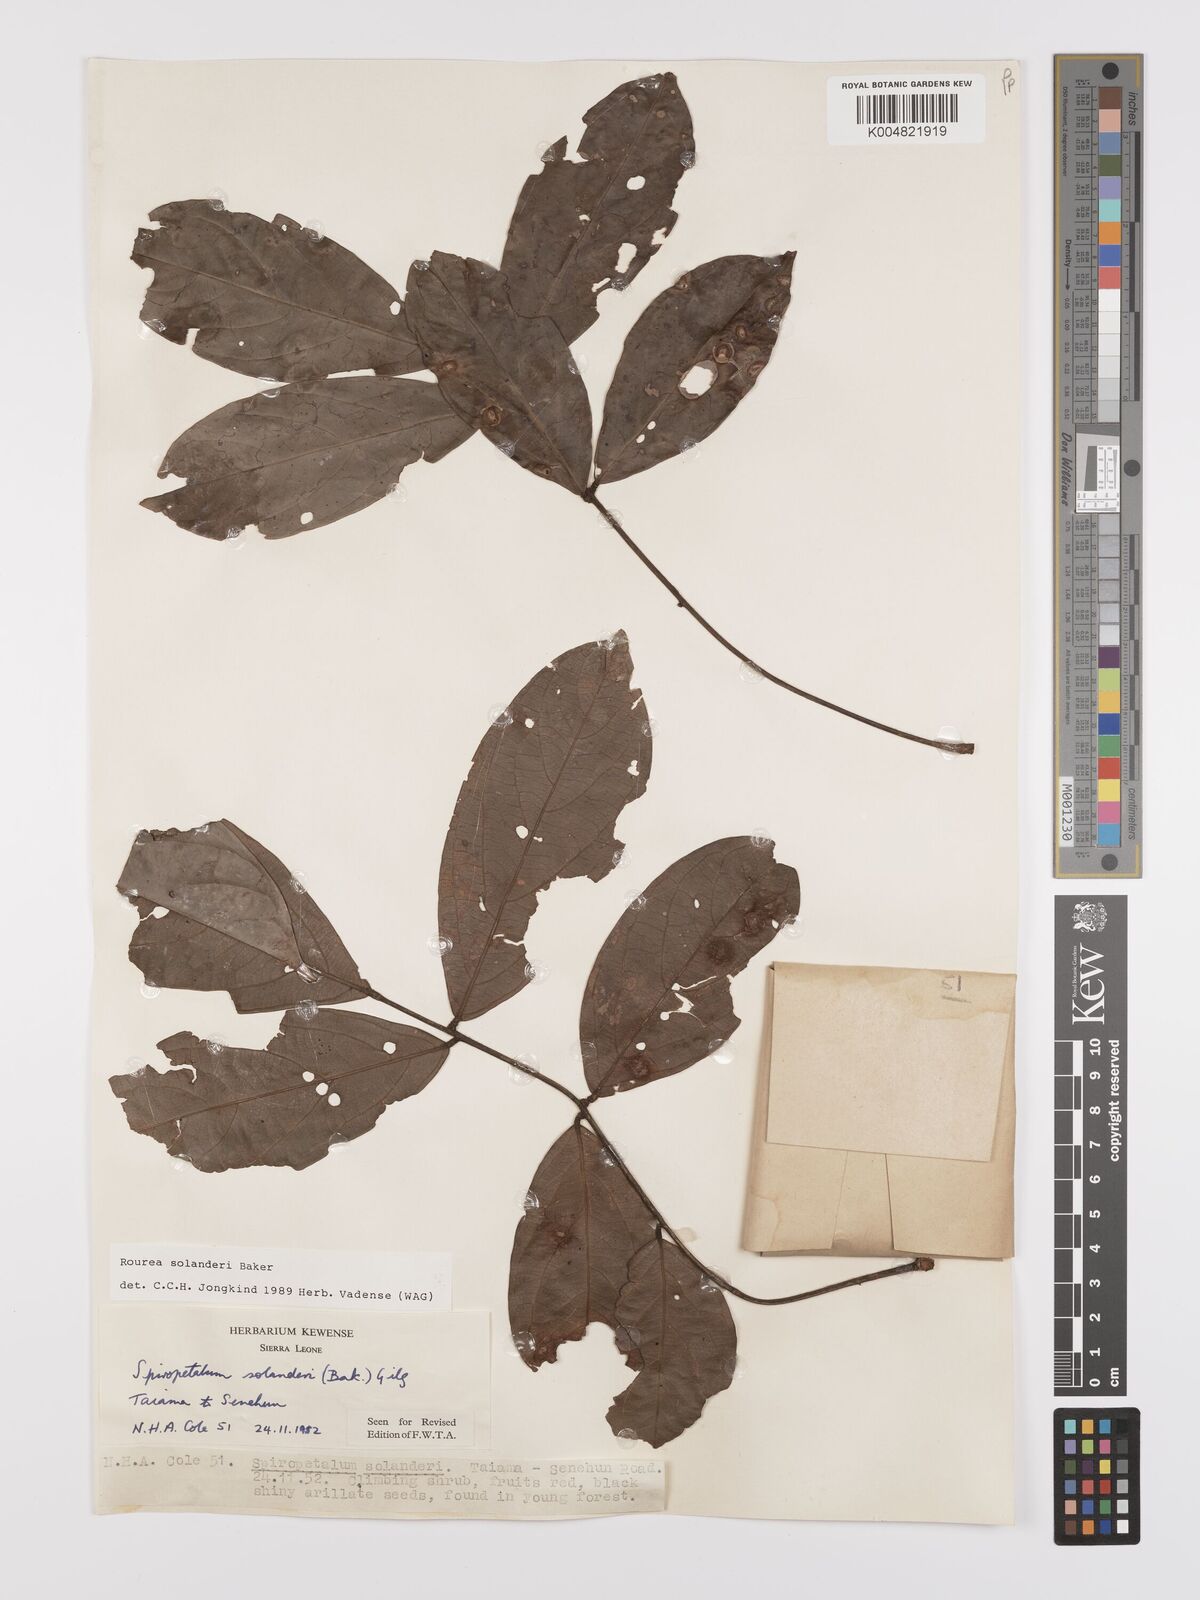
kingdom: Plantae
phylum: Tracheophyta
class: Magnoliopsida
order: Oxalidales
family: Connaraceae
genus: Rourea
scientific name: Rourea solanderi
